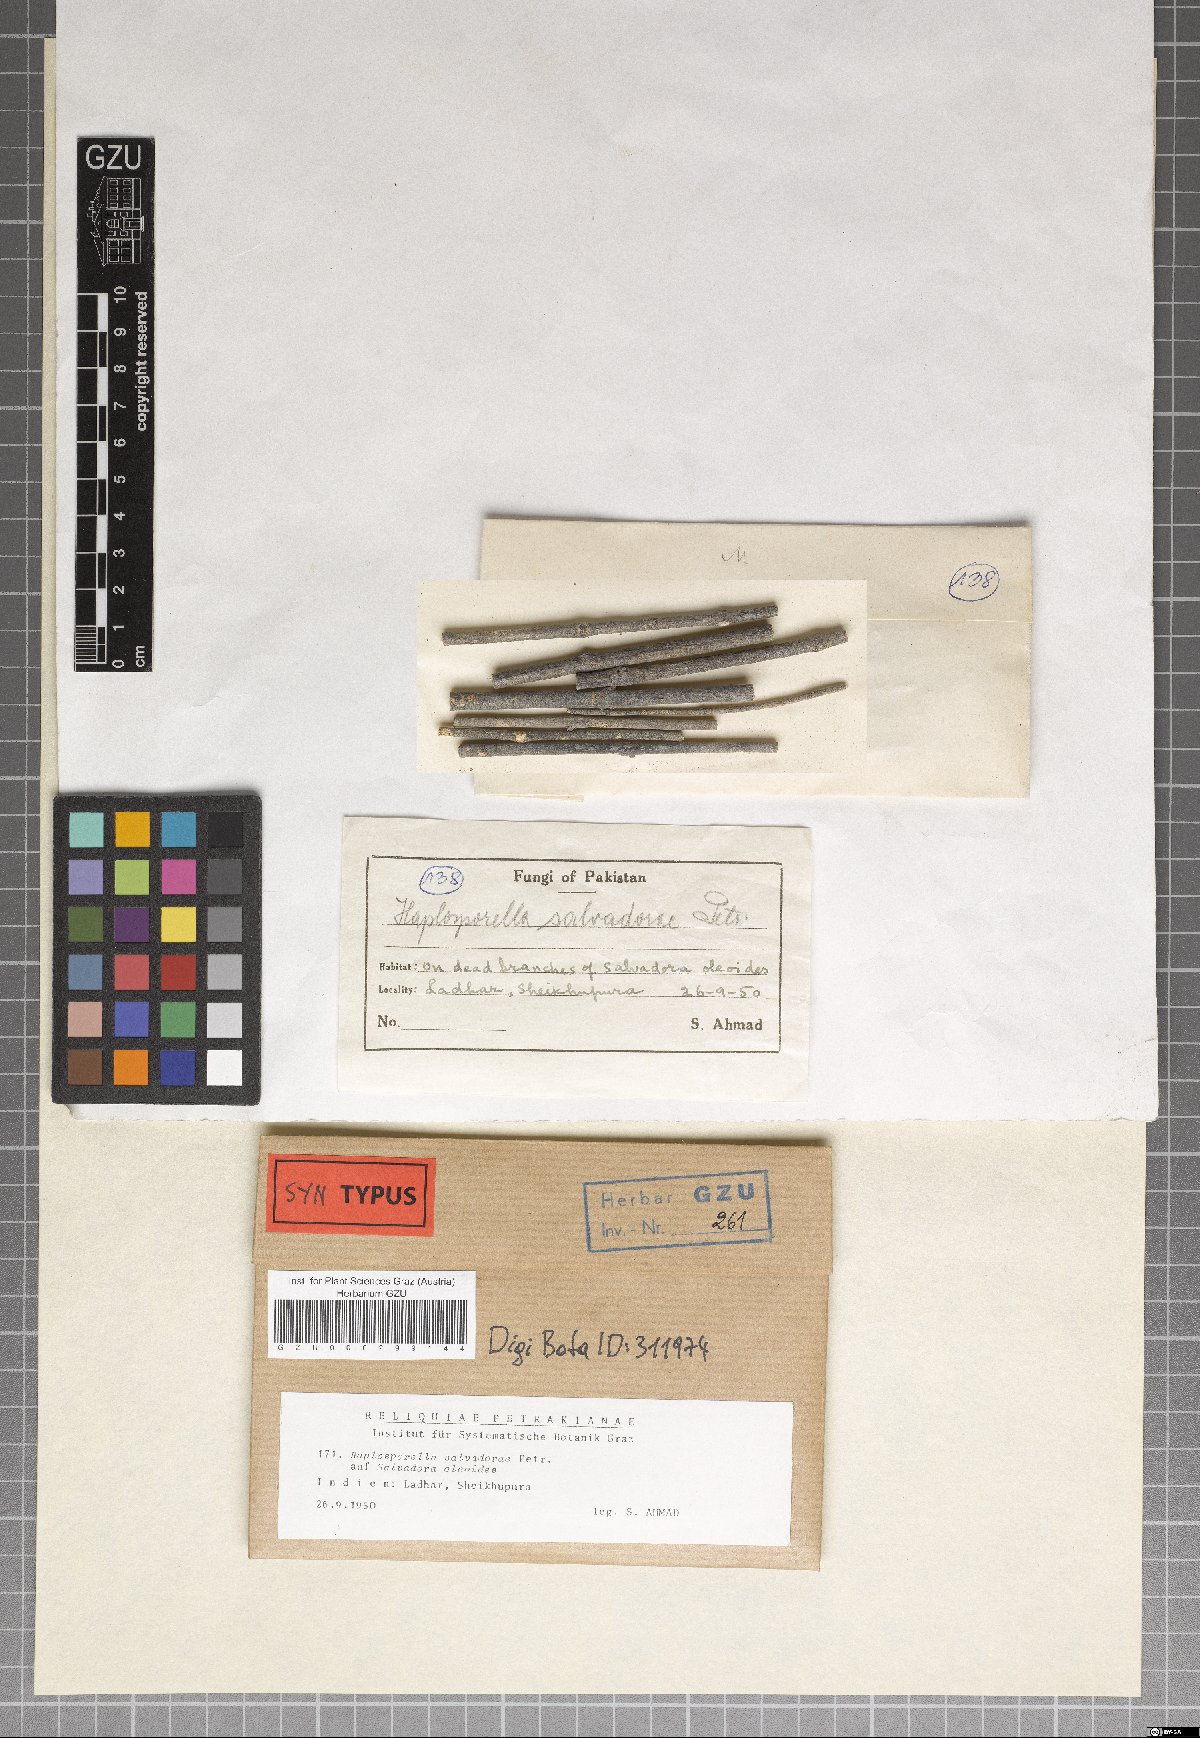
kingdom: Fungi
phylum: Ascomycota
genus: Avettaea
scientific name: Avettaea salvadorae
